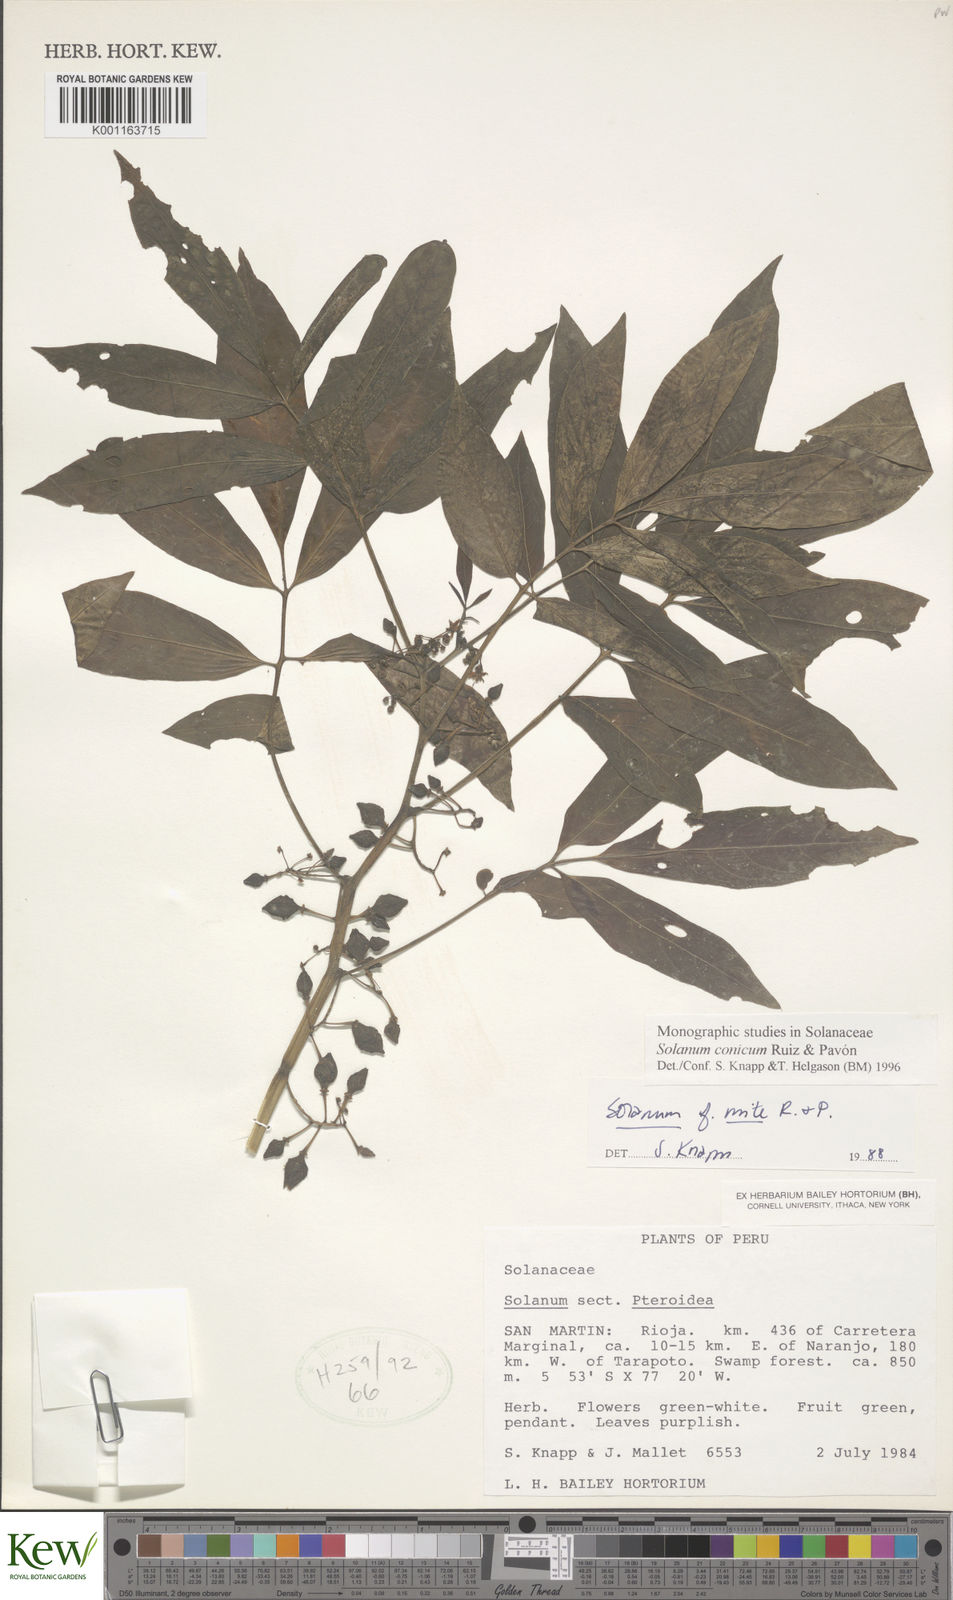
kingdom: Plantae
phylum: Tracheophyta
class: Magnoliopsida
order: Solanales
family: Solanaceae
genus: Solanum
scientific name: Solanum conicum
